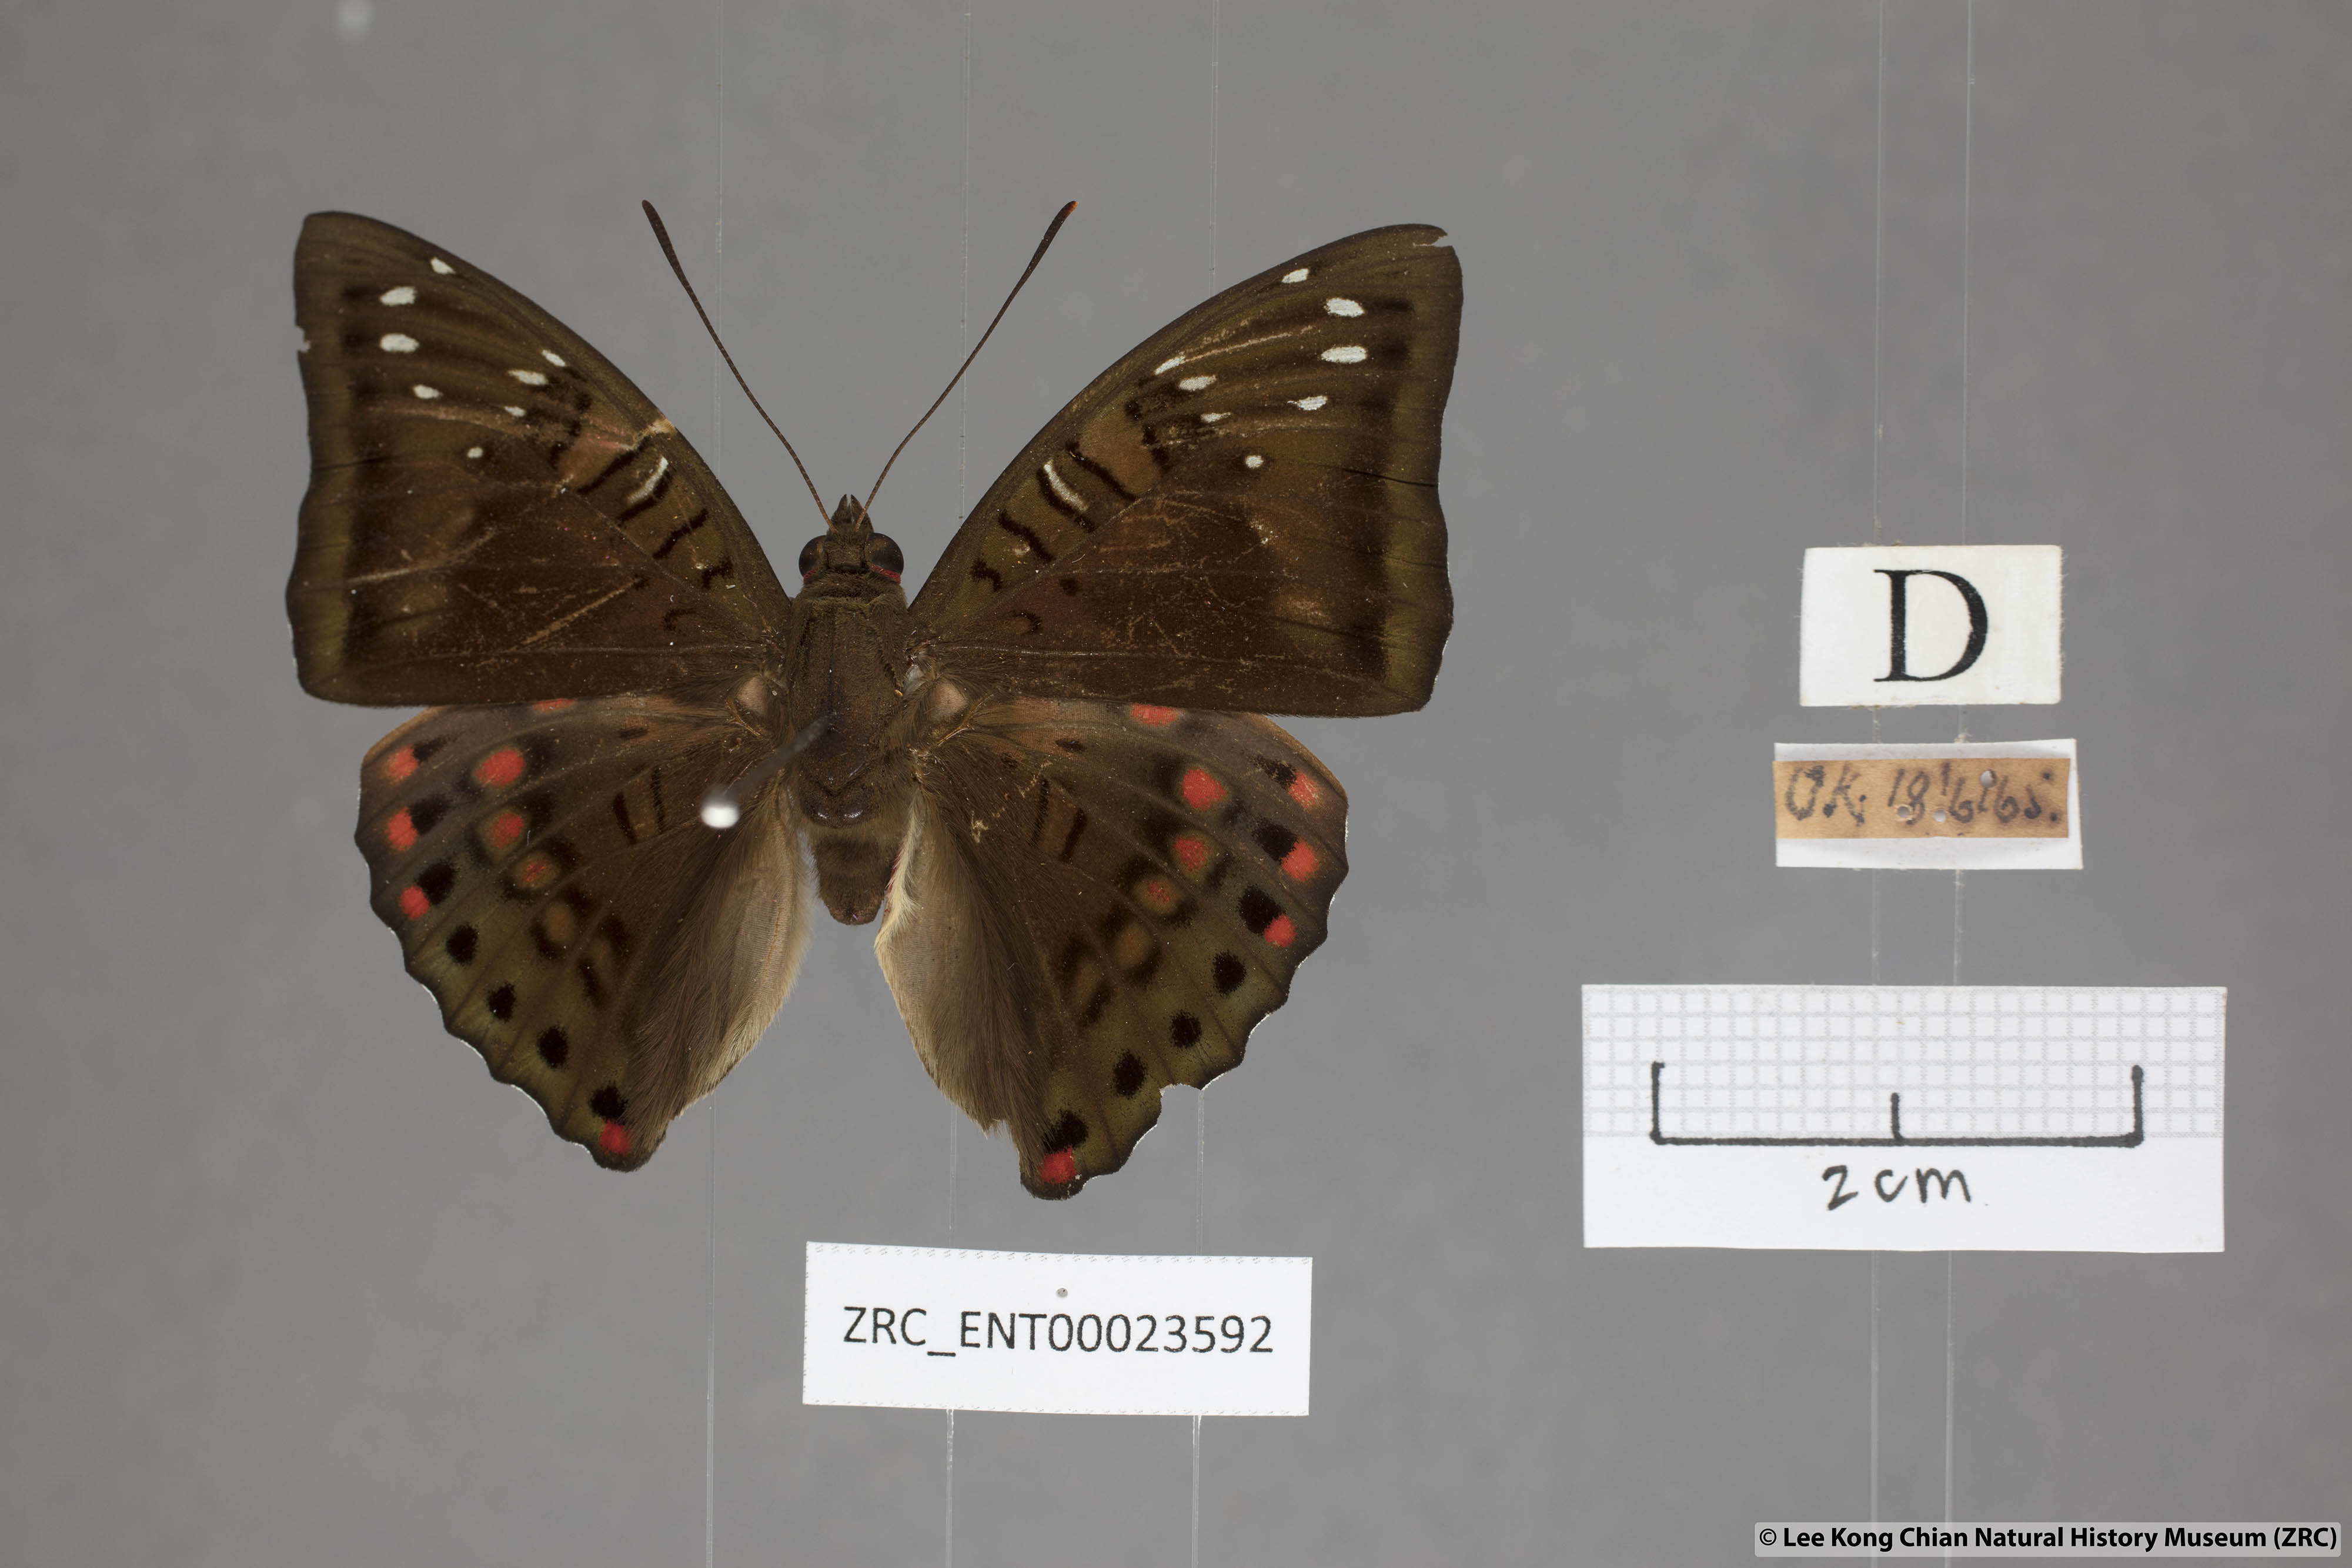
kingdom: Animalia
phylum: Arthropoda
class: Insecta
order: Lepidoptera
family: Nymphalidae
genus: Euthalia
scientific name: Euthalia adonia
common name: Green baron
